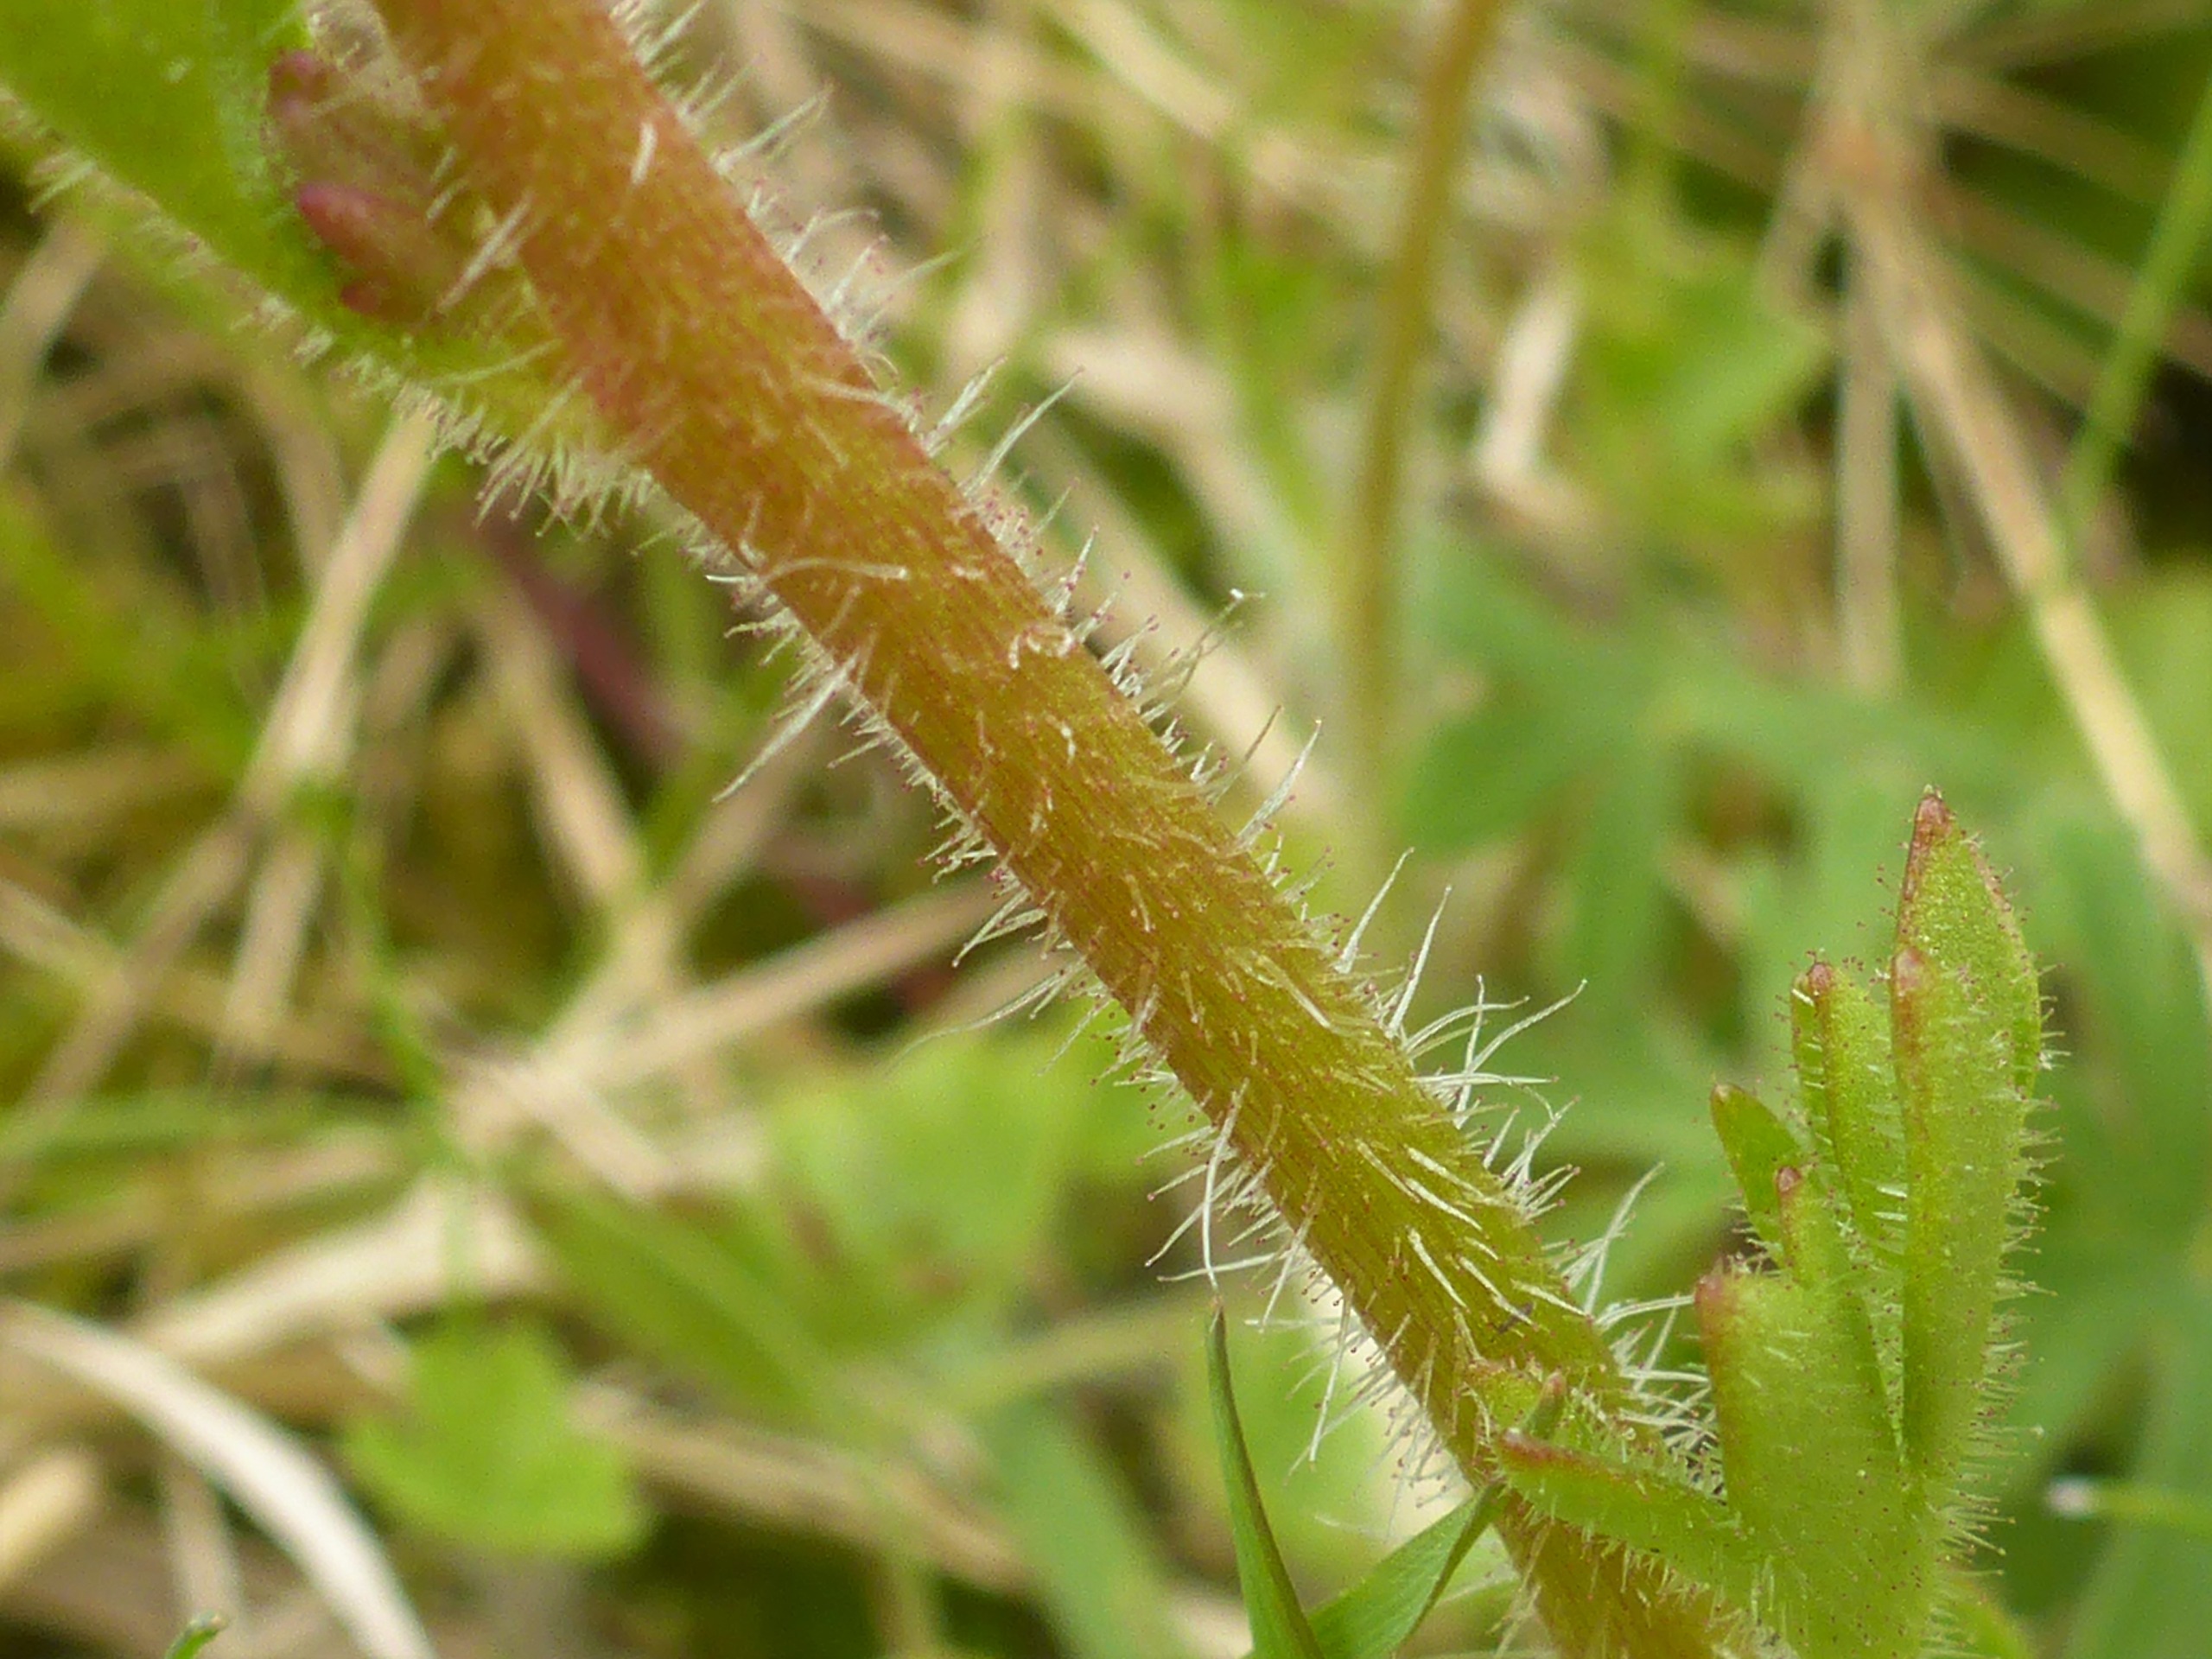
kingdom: Plantae
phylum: Tracheophyta
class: Magnoliopsida
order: Saxifragales
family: Saxifragaceae
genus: Saxifraga
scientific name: Saxifraga granulata
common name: Kornet stenbræk
